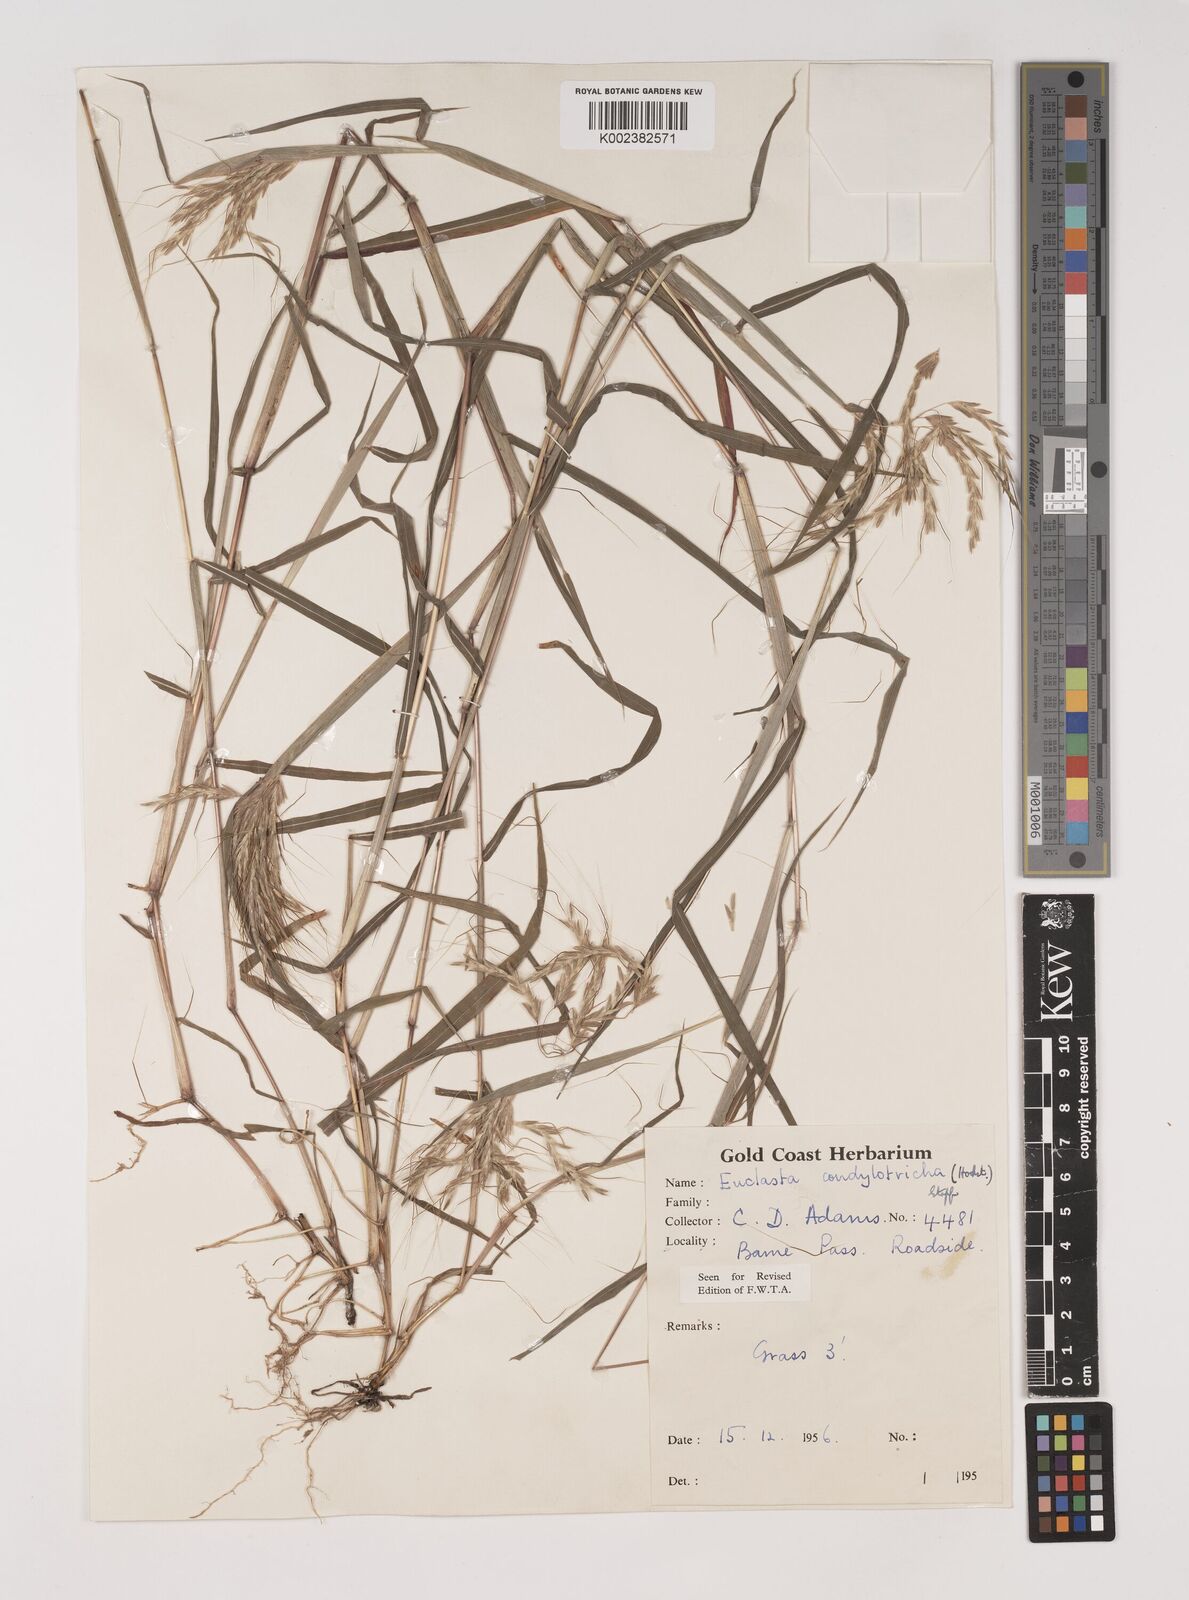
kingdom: Plantae
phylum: Tracheophyta
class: Liliopsida
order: Poales
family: Poaceae
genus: Euclasta
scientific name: Euclasta condylotricha
